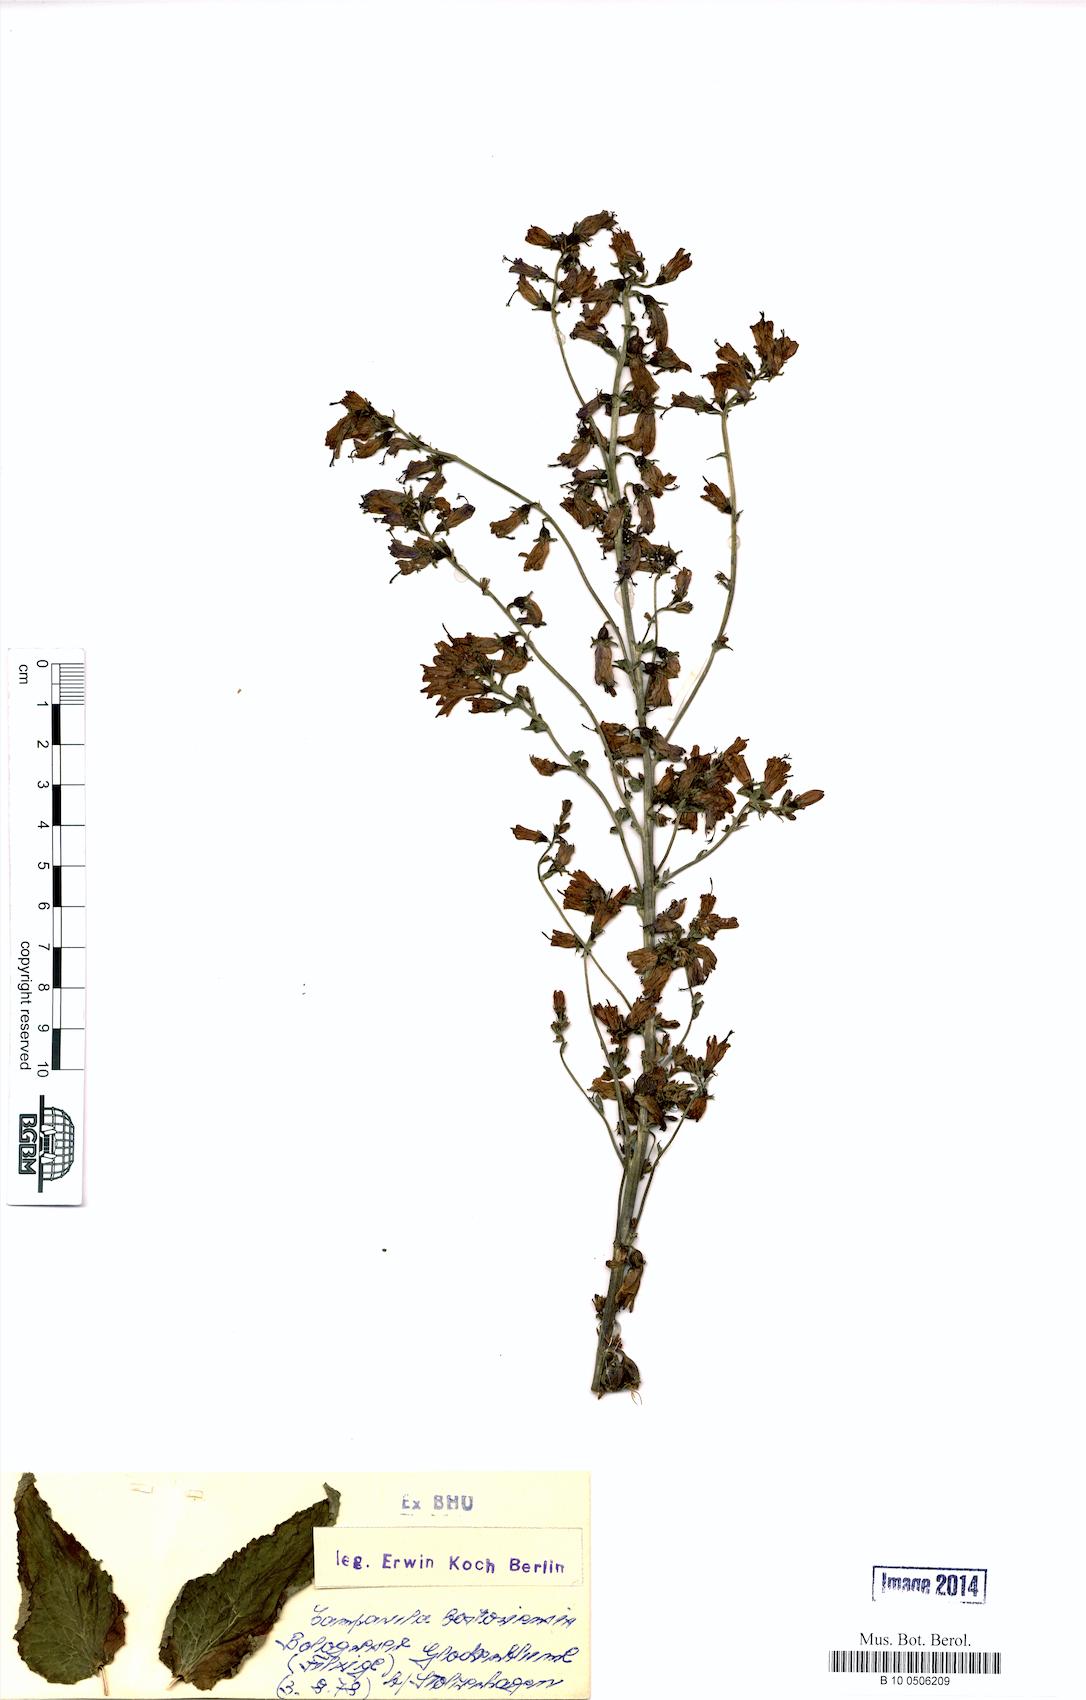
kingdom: Plantae
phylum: Tracheophyta
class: Magnoliopsida
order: Asterales
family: Campanulaceae
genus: Campanula
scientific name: Campanula bononiensis
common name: Pale bellflower
